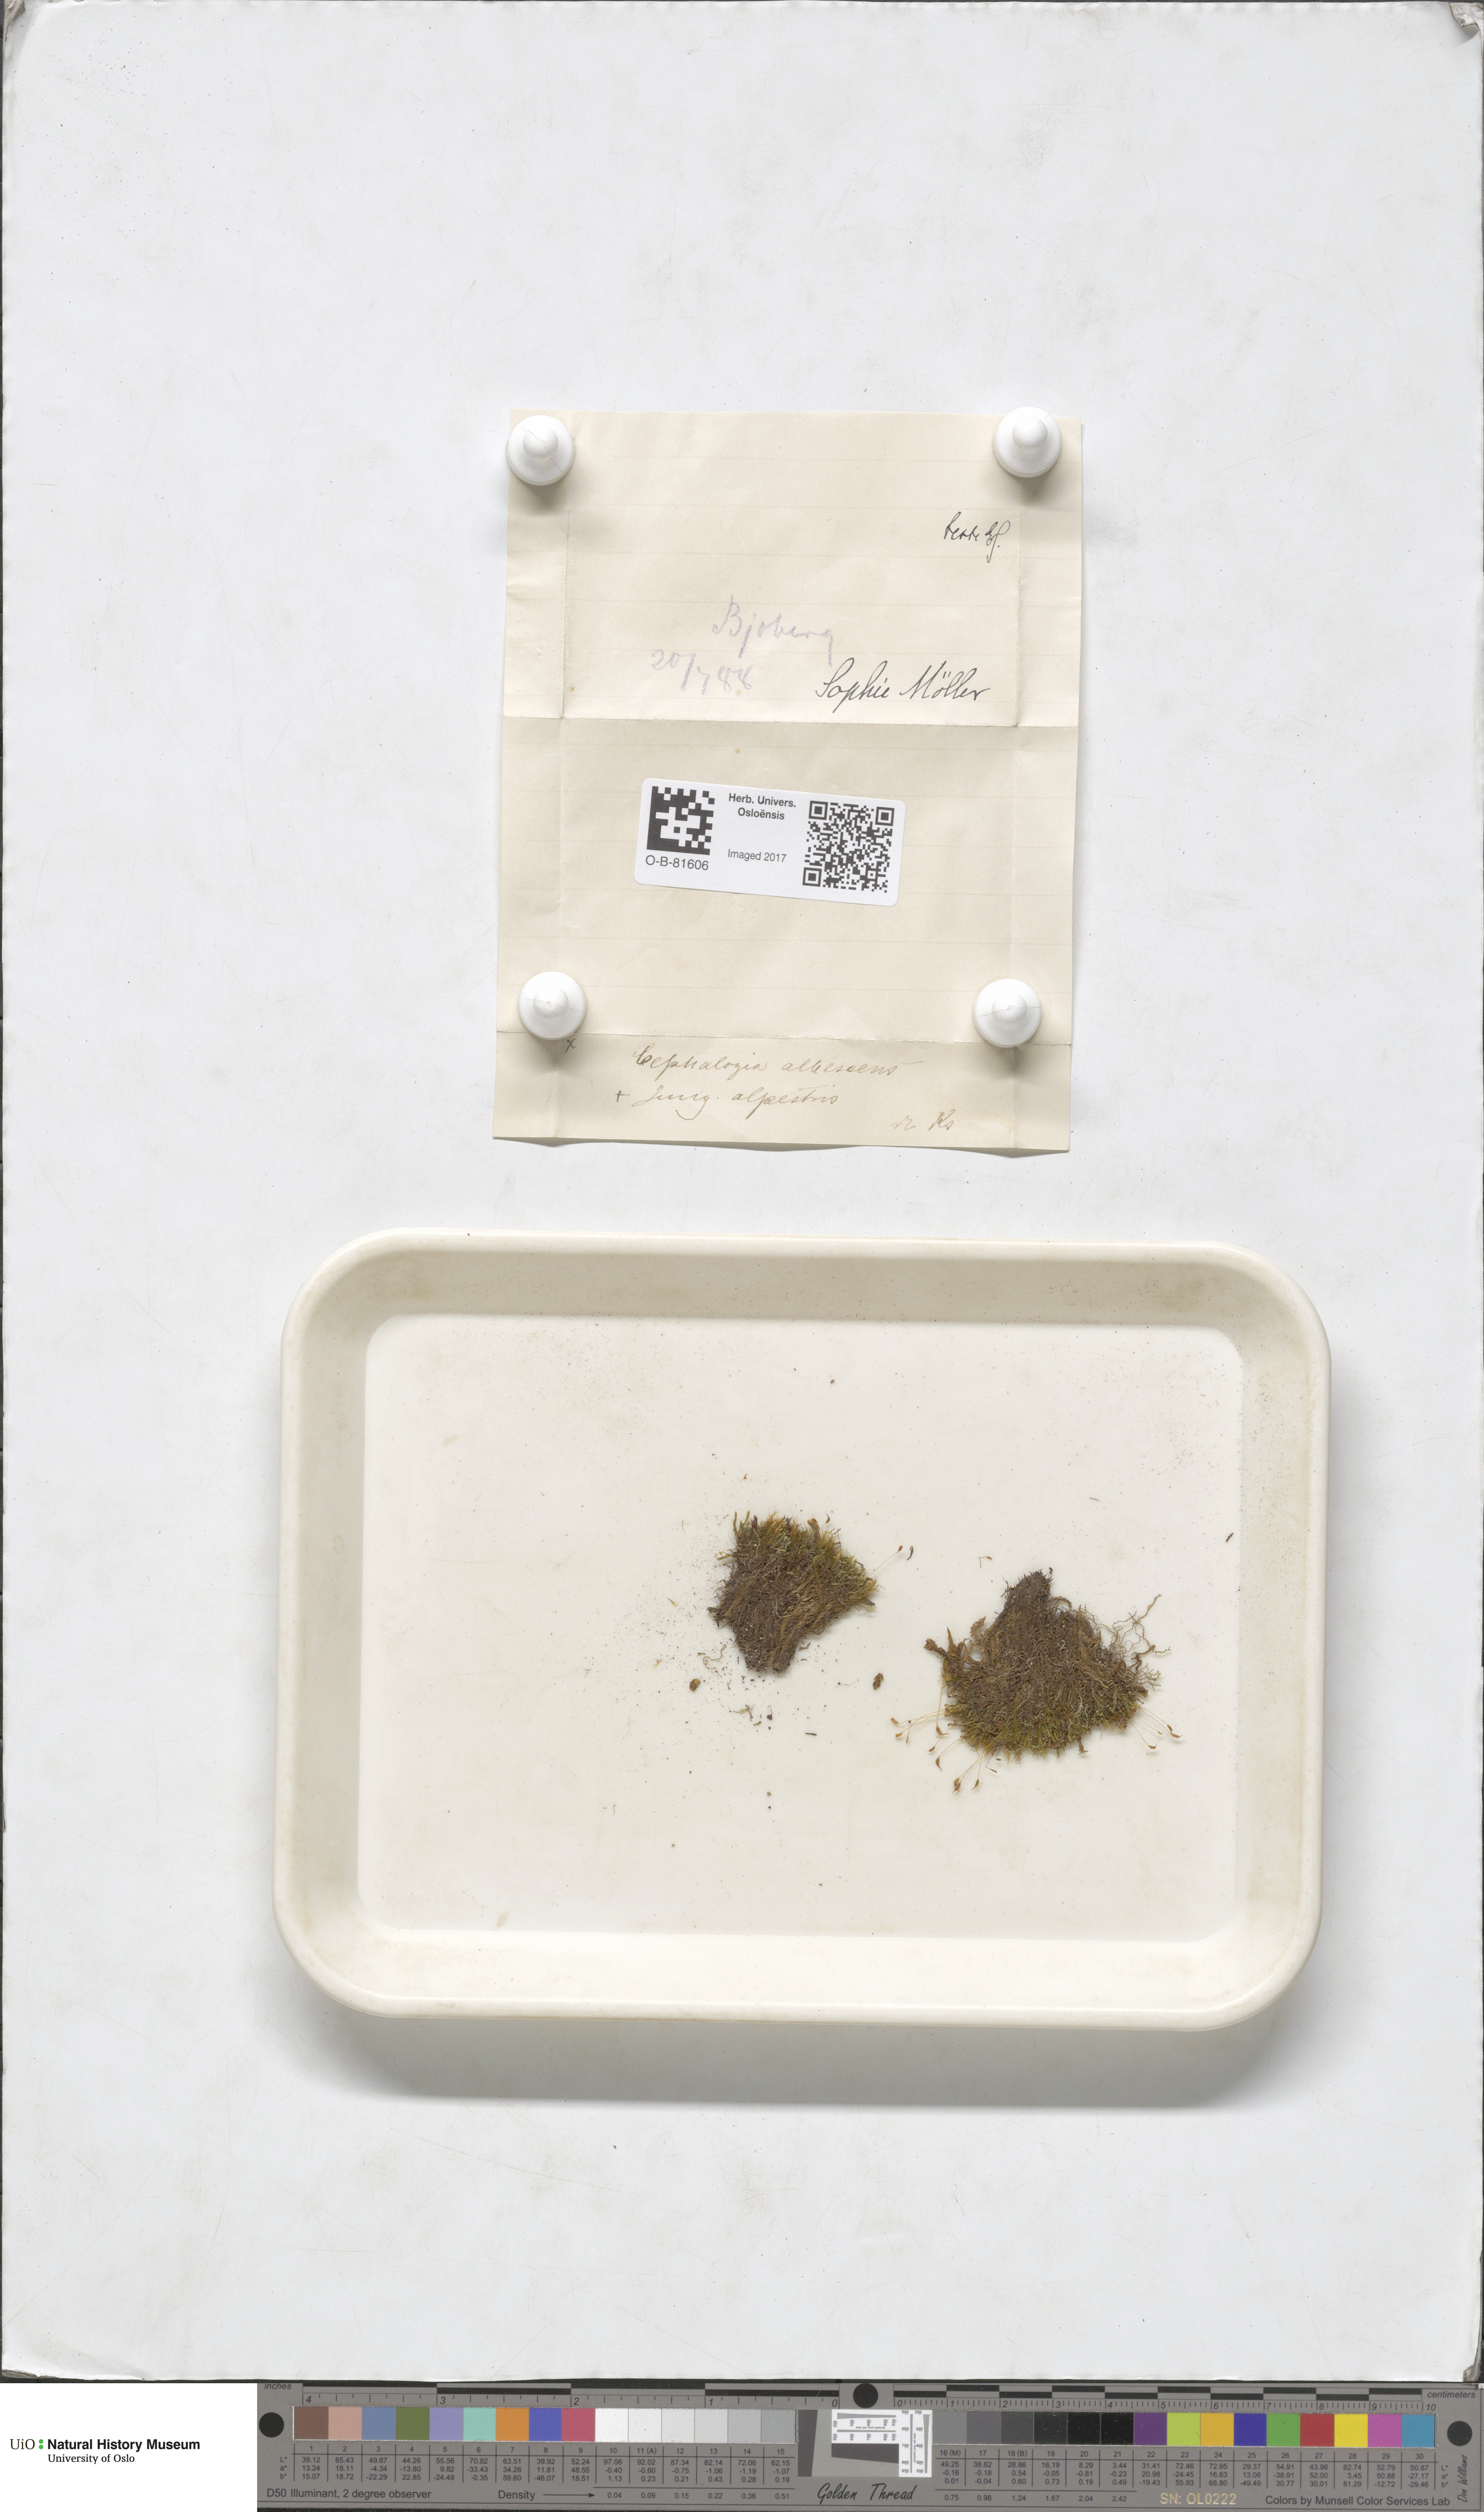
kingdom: Plantae
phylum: Marchantiophyta
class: Jungermanniopsida
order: Jungermanniales
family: Cephaloziaceae
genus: Fuscocephaloziopsis
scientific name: Fuscocephaloziopsis albescens
